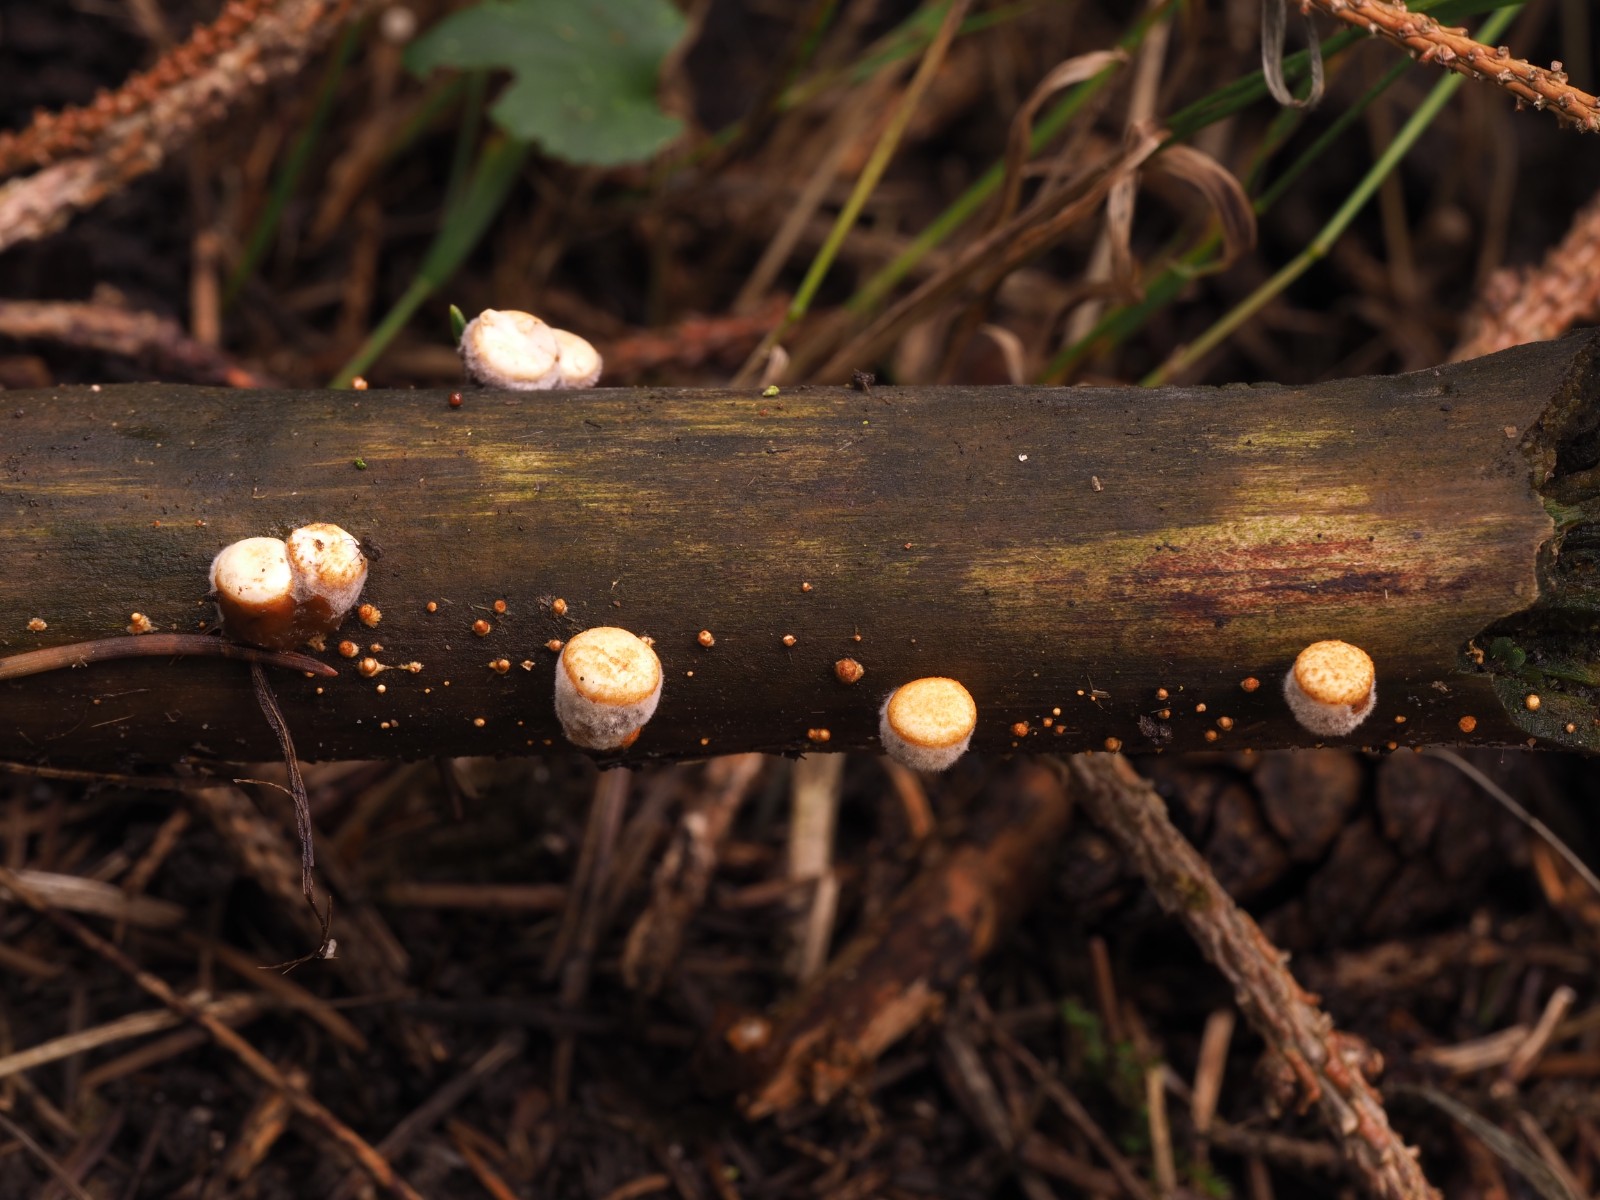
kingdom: Fungi
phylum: Basidiomycota
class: Agaricomycetes
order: Agaricales
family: Nidulariaceae
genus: Crucibulum
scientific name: Crucibulum crucibuliforme
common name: krukkesvamp
